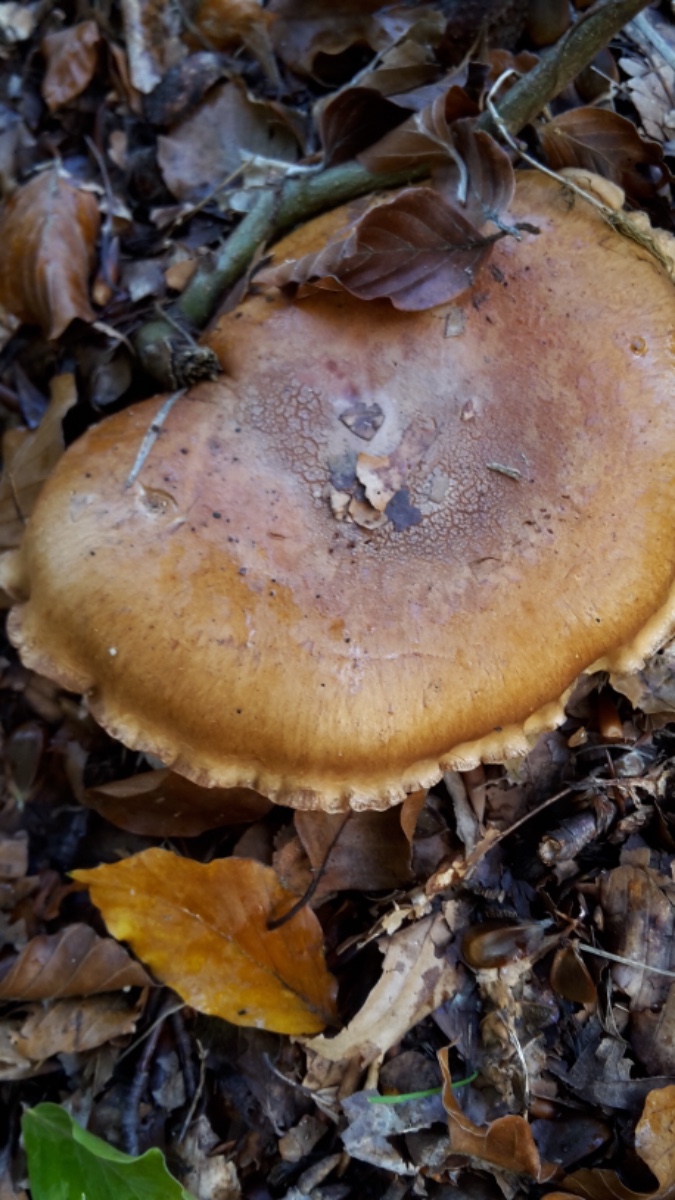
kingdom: Fungi
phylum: Basidiomycota
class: Agaricomycetes
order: Agaricales
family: Cortinariaceae
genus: Cortinarius
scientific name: Cortinarius
